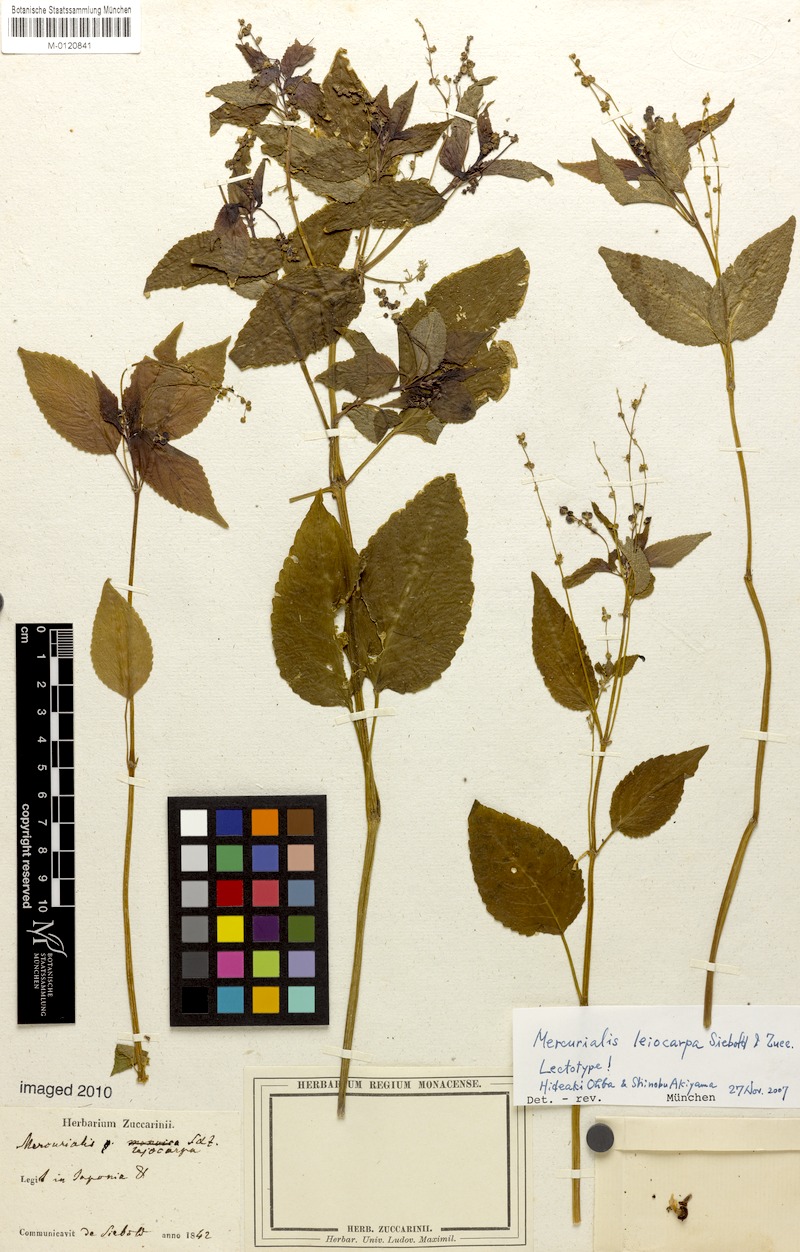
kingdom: Plantae
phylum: Tracheophyta
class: Magnoliopsida
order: Malpighiales
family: Euphorbiaceae
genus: Mercurialis
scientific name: Mercurialis leiocarpa
